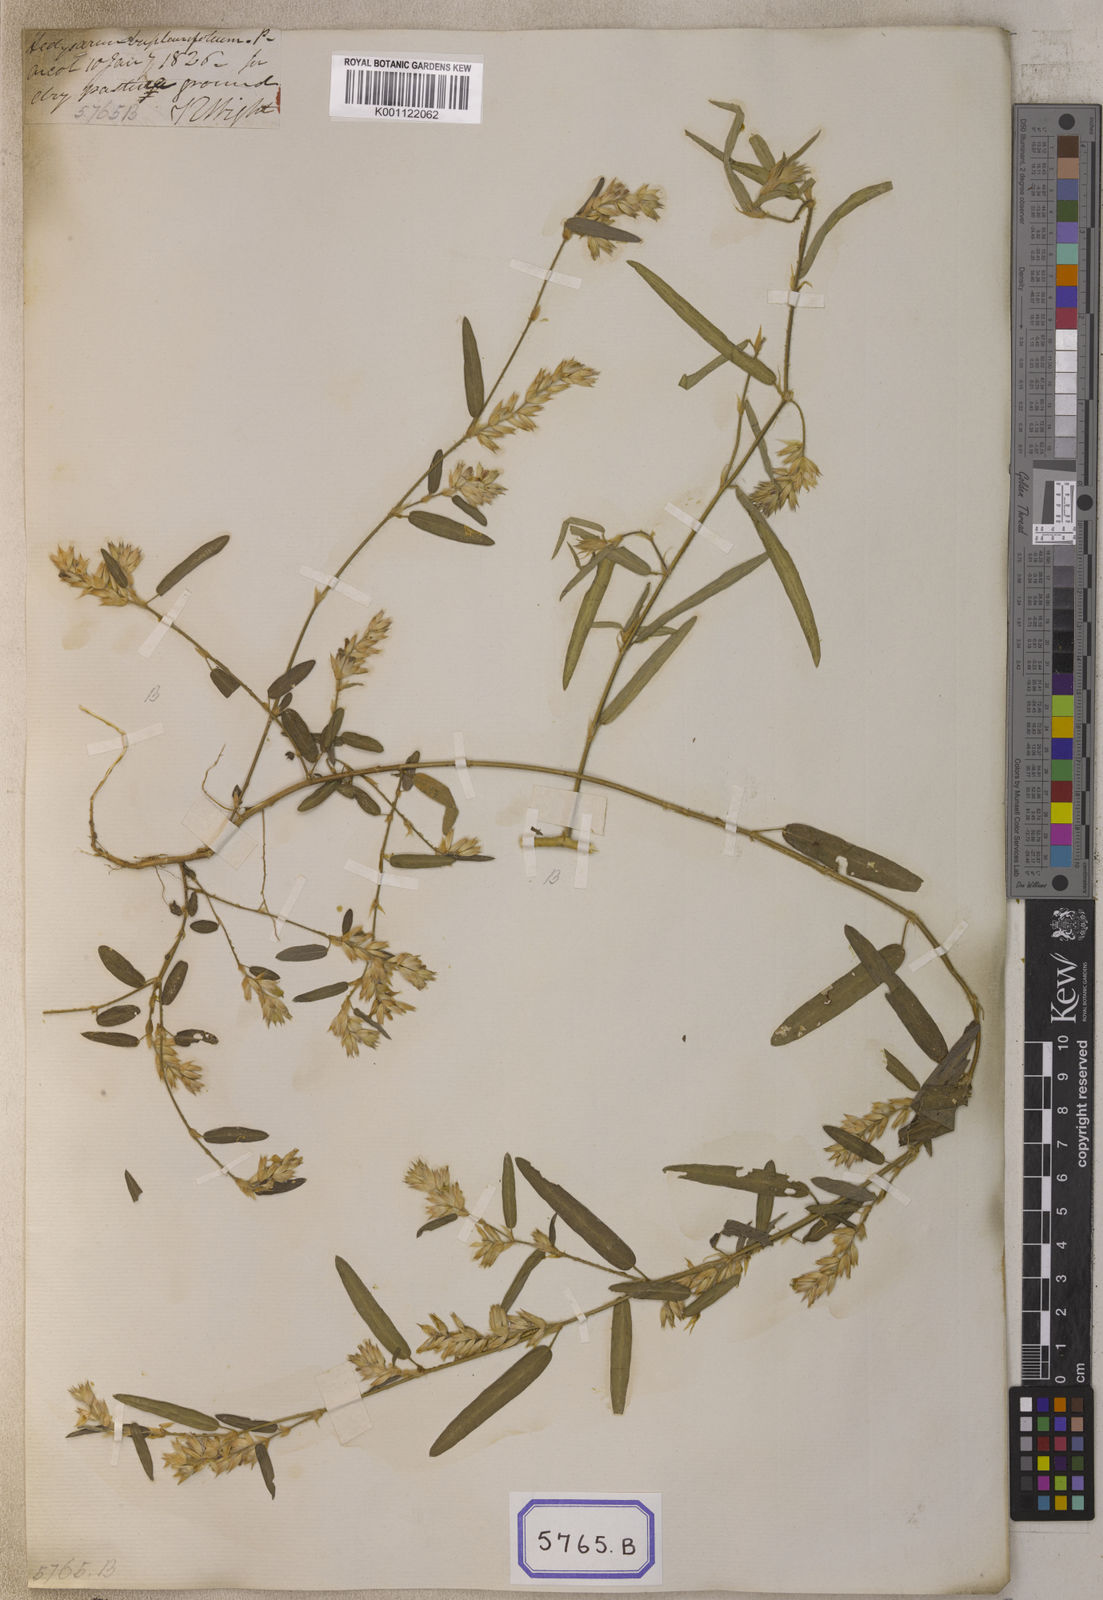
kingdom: Plantae
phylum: Tracheophyta
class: Magnoliopsida
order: Fabales
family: Fabaceae
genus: Alysicarpus
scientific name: Alysicarpus
